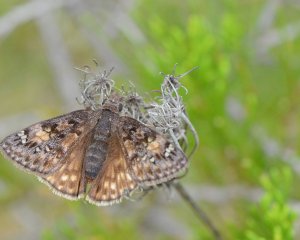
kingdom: Animalia
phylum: Arthropoda
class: Insecta
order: Lepidoptera
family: Hesperiidae
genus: Gesta
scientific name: Gesta
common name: Juvenal's Duskywing
